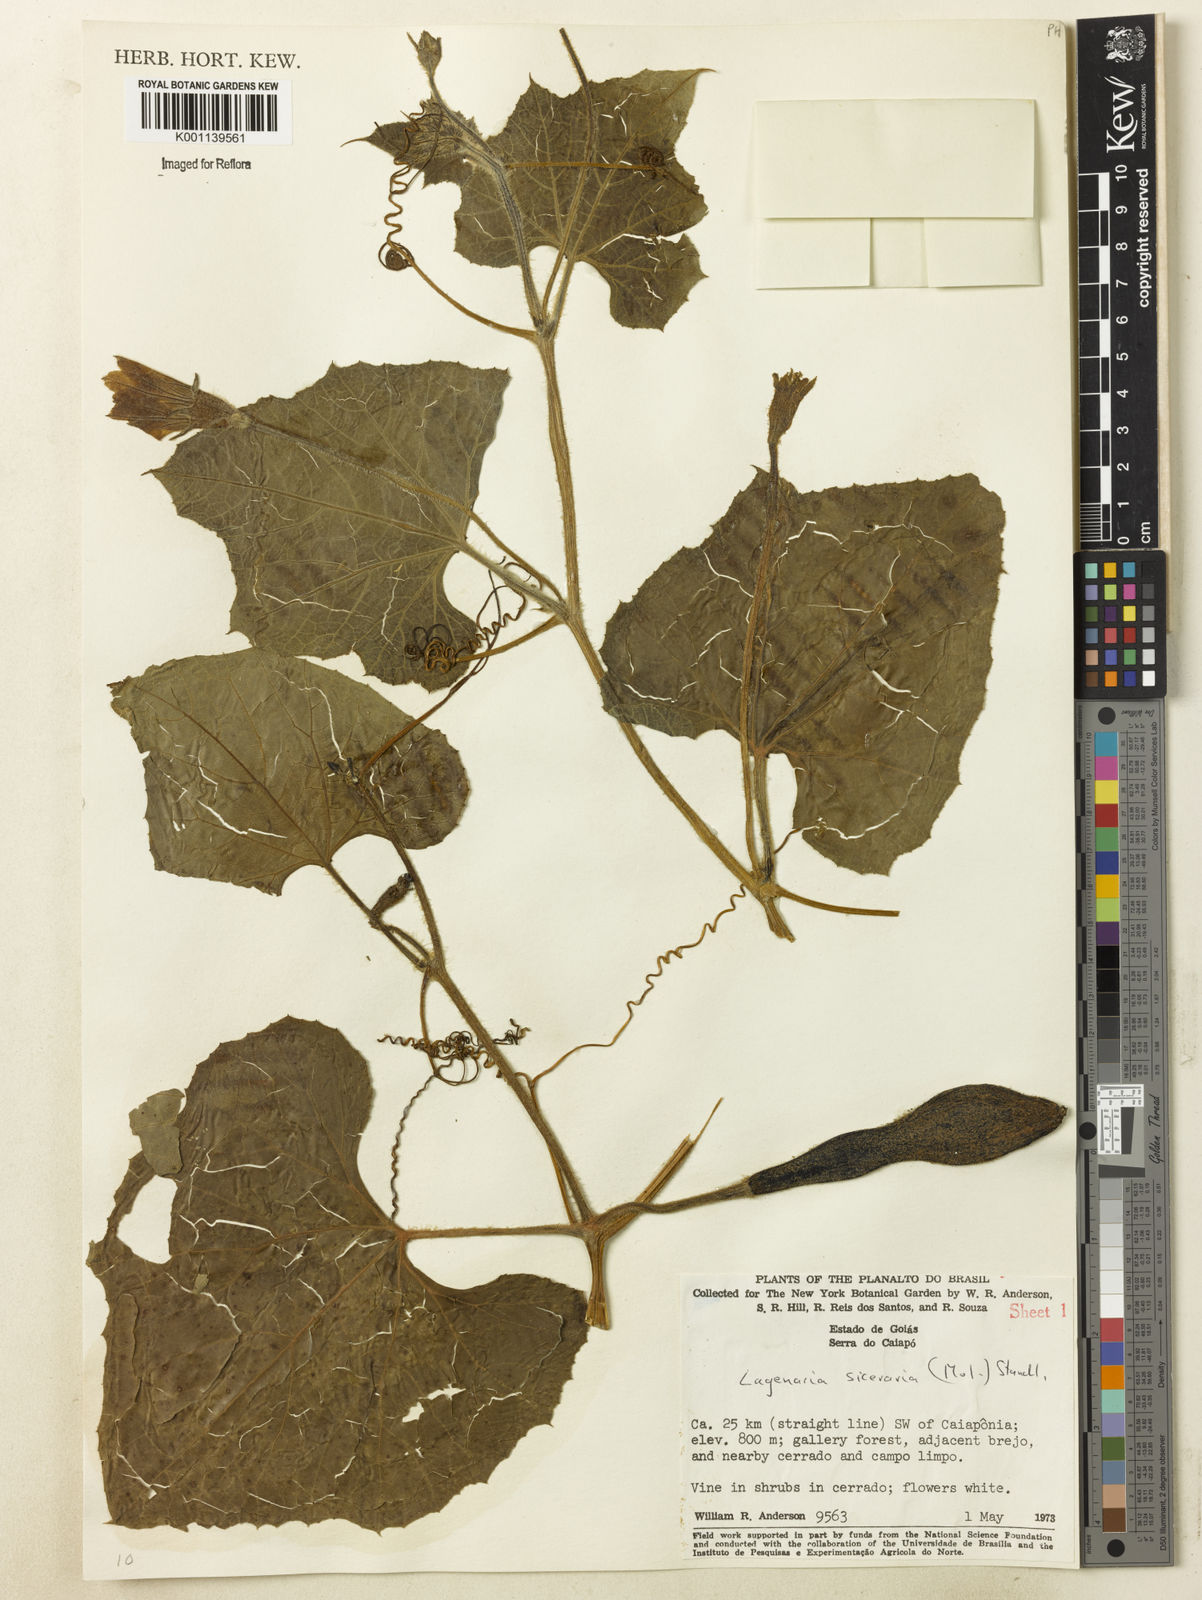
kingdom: Plantae
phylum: Tracheophyta
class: Magnoliopsida
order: Cucurbitales
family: Cucurbitaceae
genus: Lagenaria
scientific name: Lagenaria siceraria
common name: Bottle gourd
